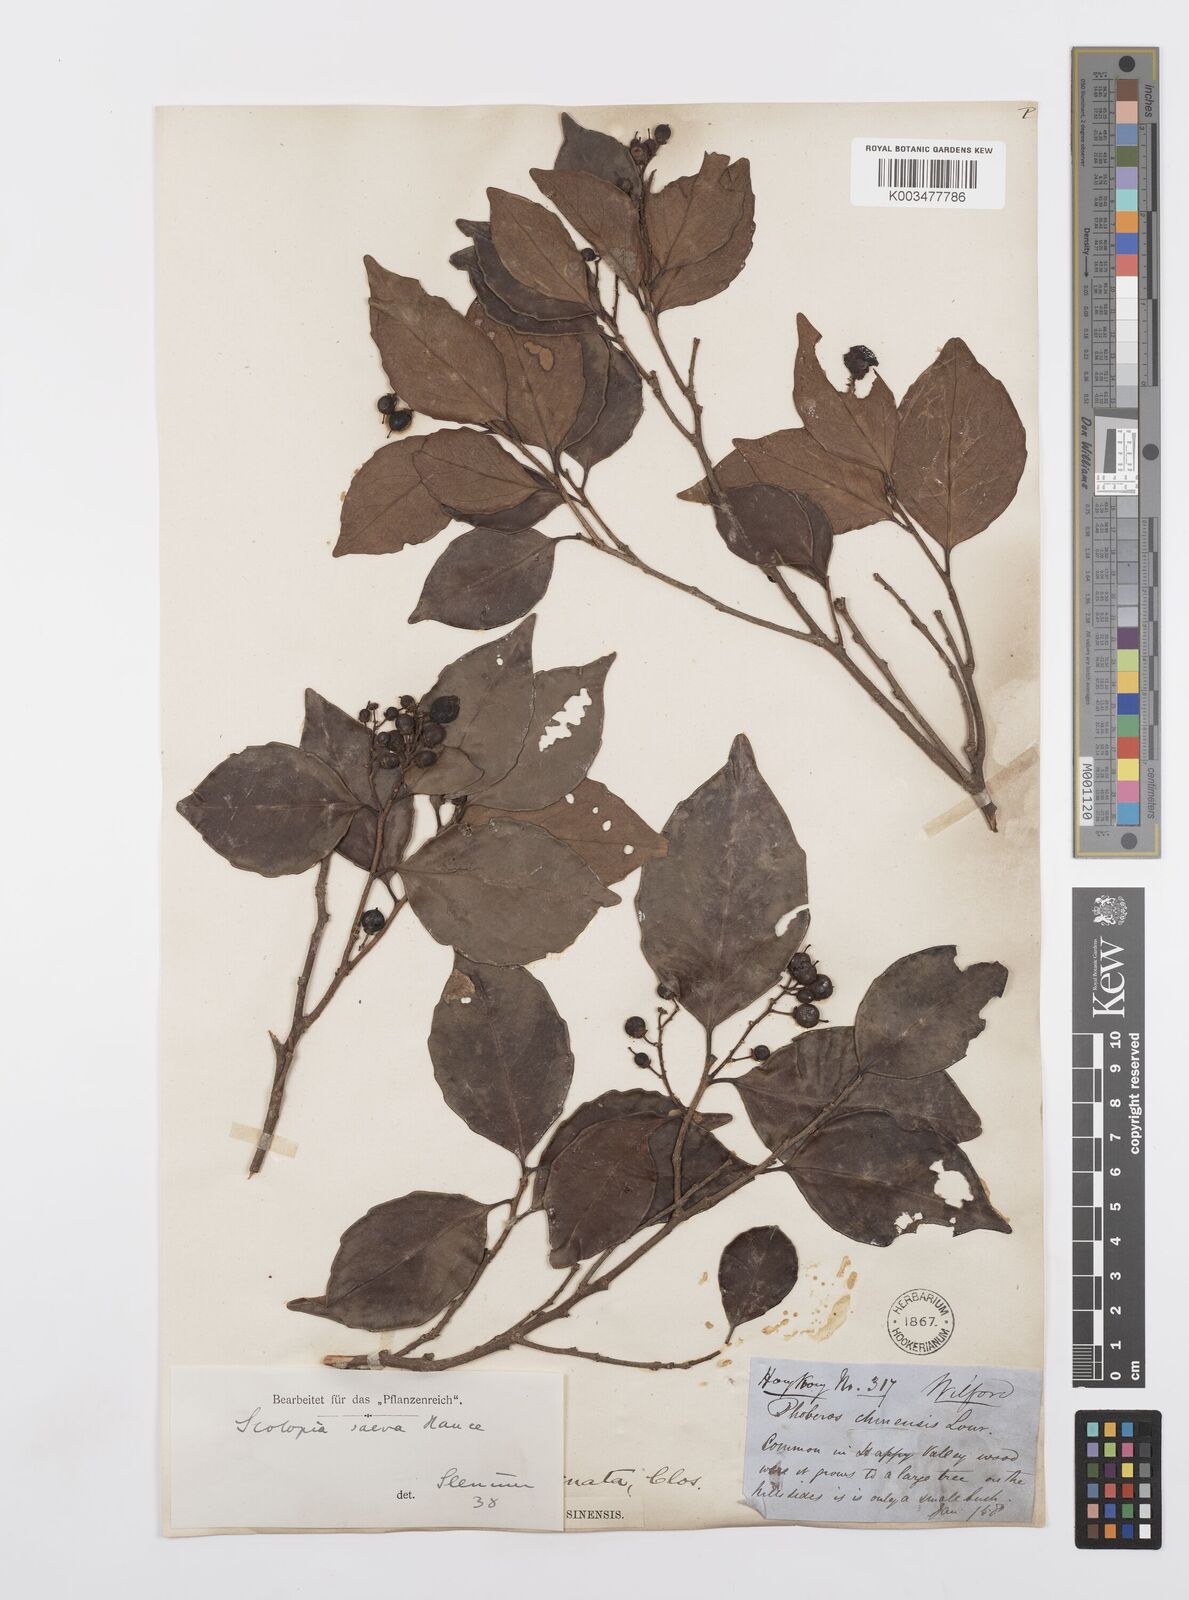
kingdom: Plantae
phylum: Tracheophyta
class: Magnoliopsida
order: Malpighiales
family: Salicaceae
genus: Scolopia
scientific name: Scolopia saeva
